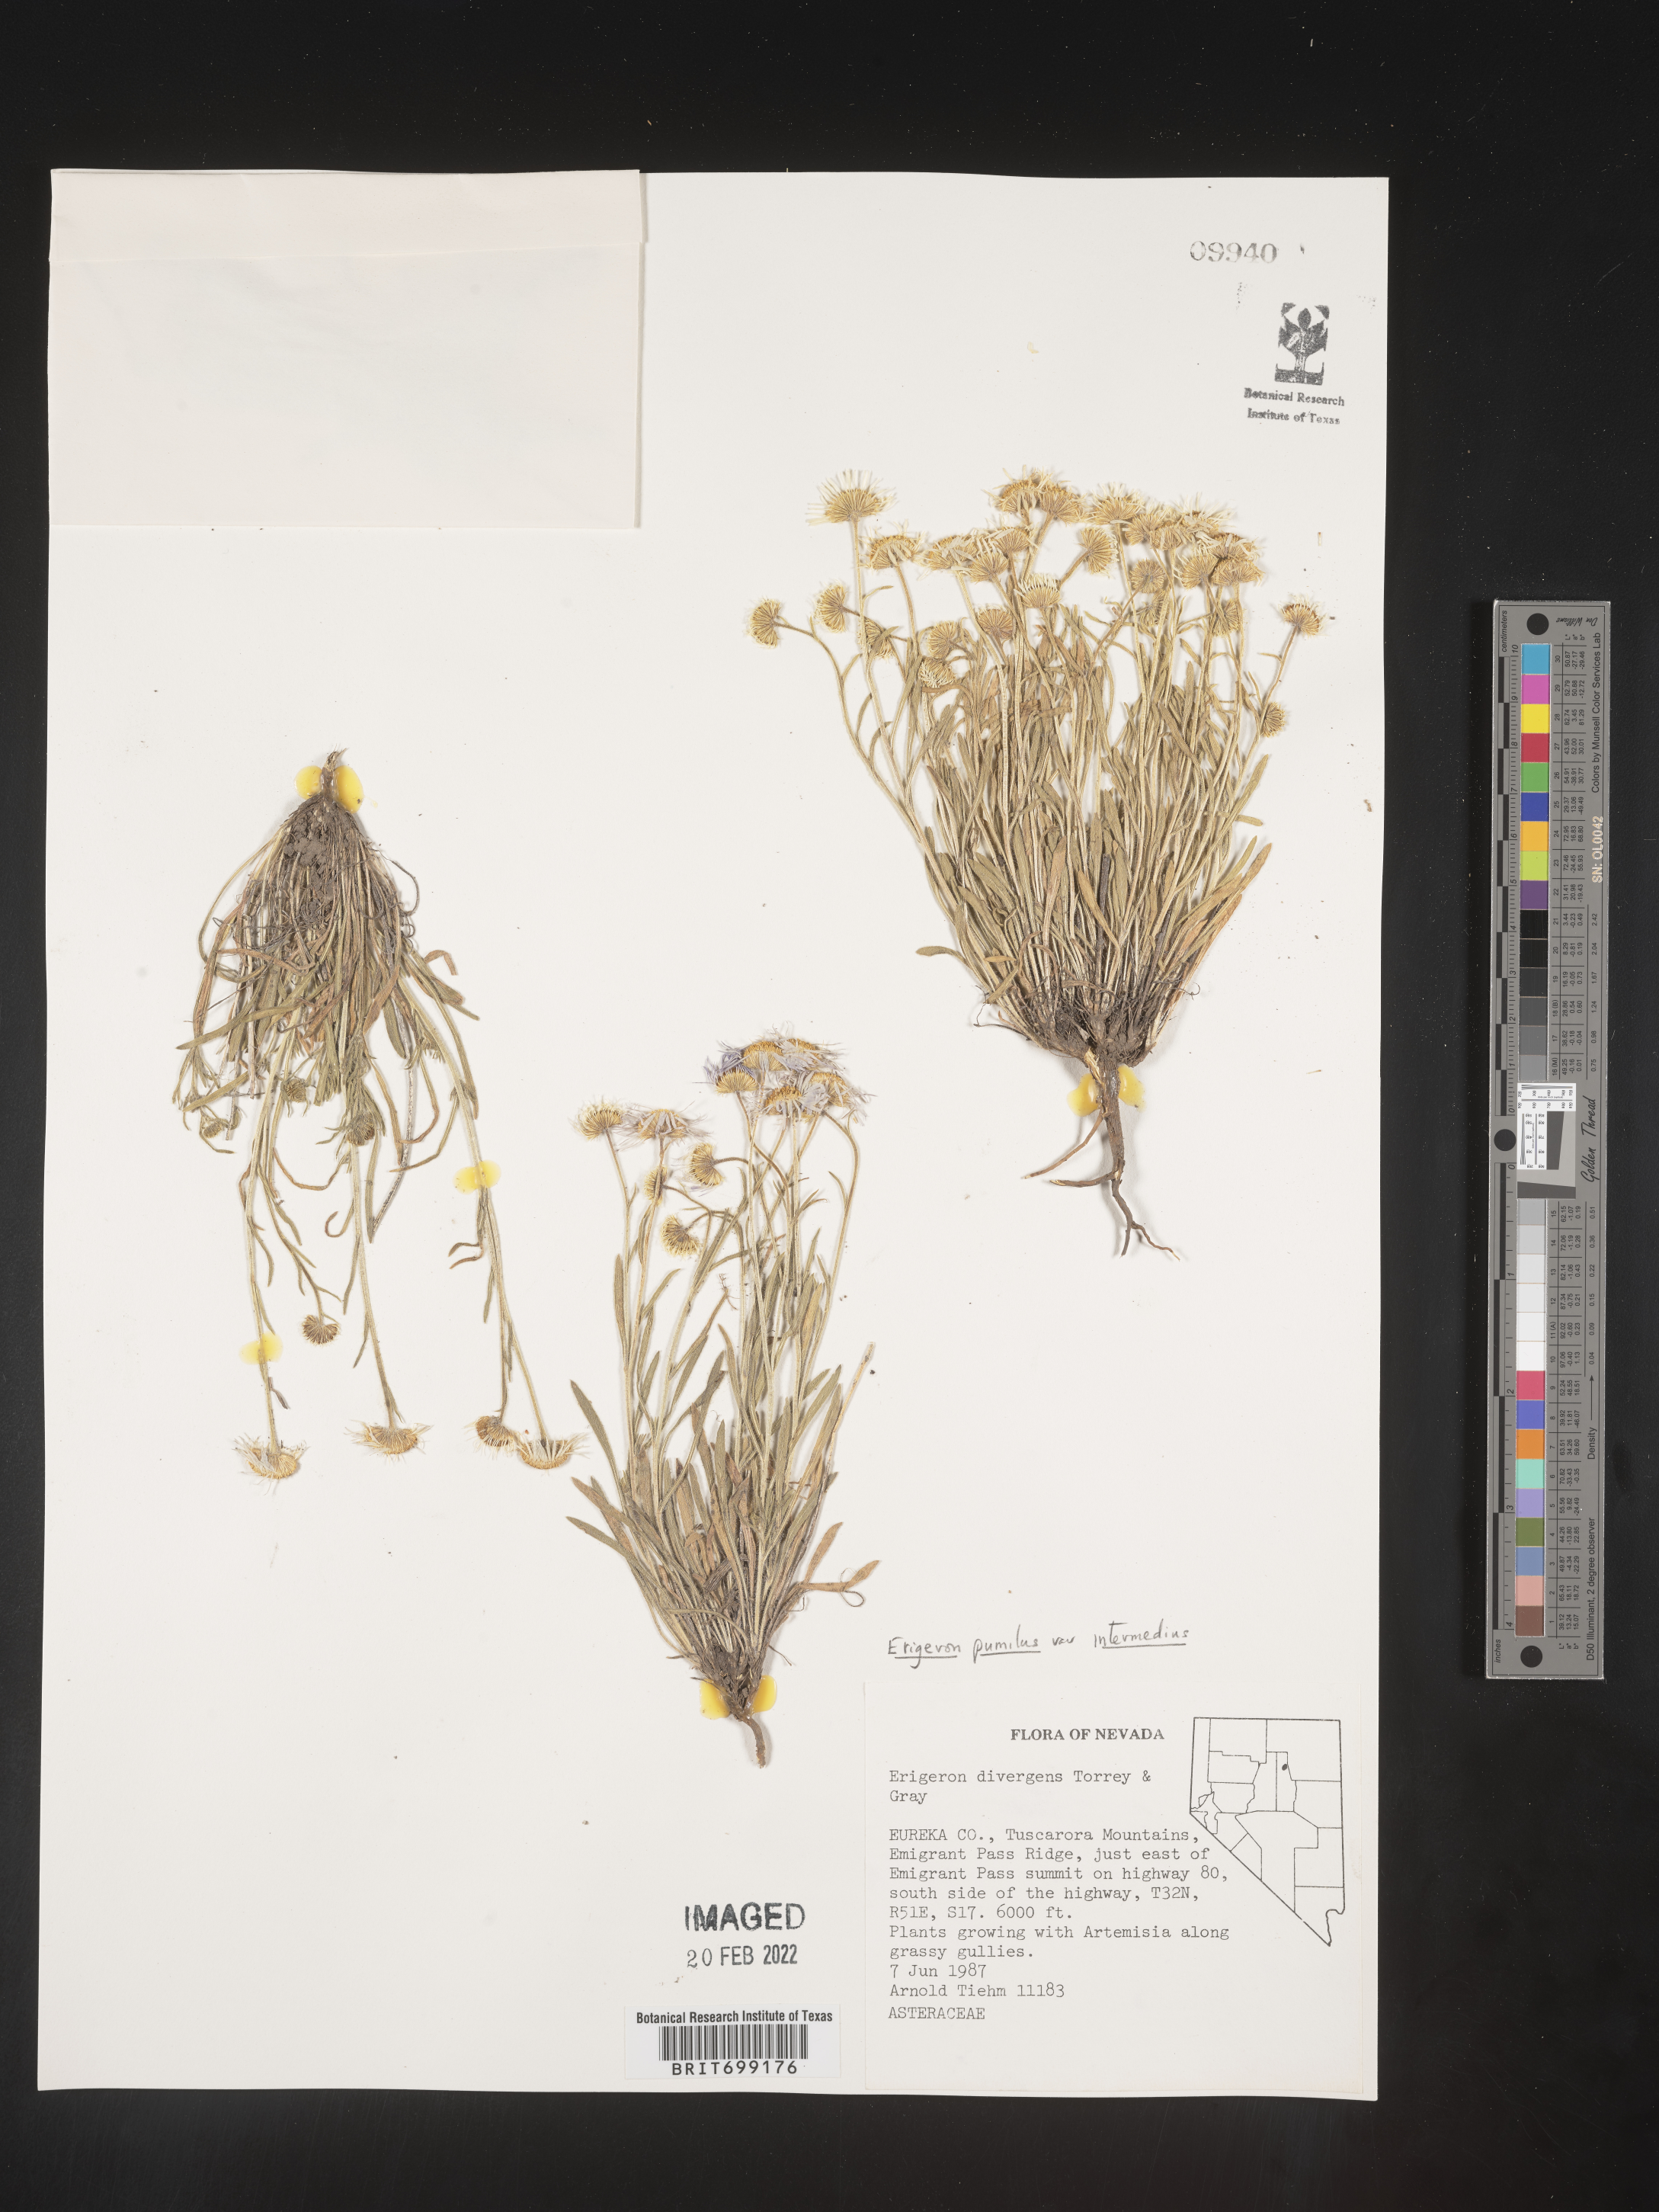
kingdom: Plantae
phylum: Tracheophyta
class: Magnoliopsida
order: Asterales
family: Asteraceae
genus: Erigeron
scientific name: Erigeron pumilus
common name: Shaggy fleabane
